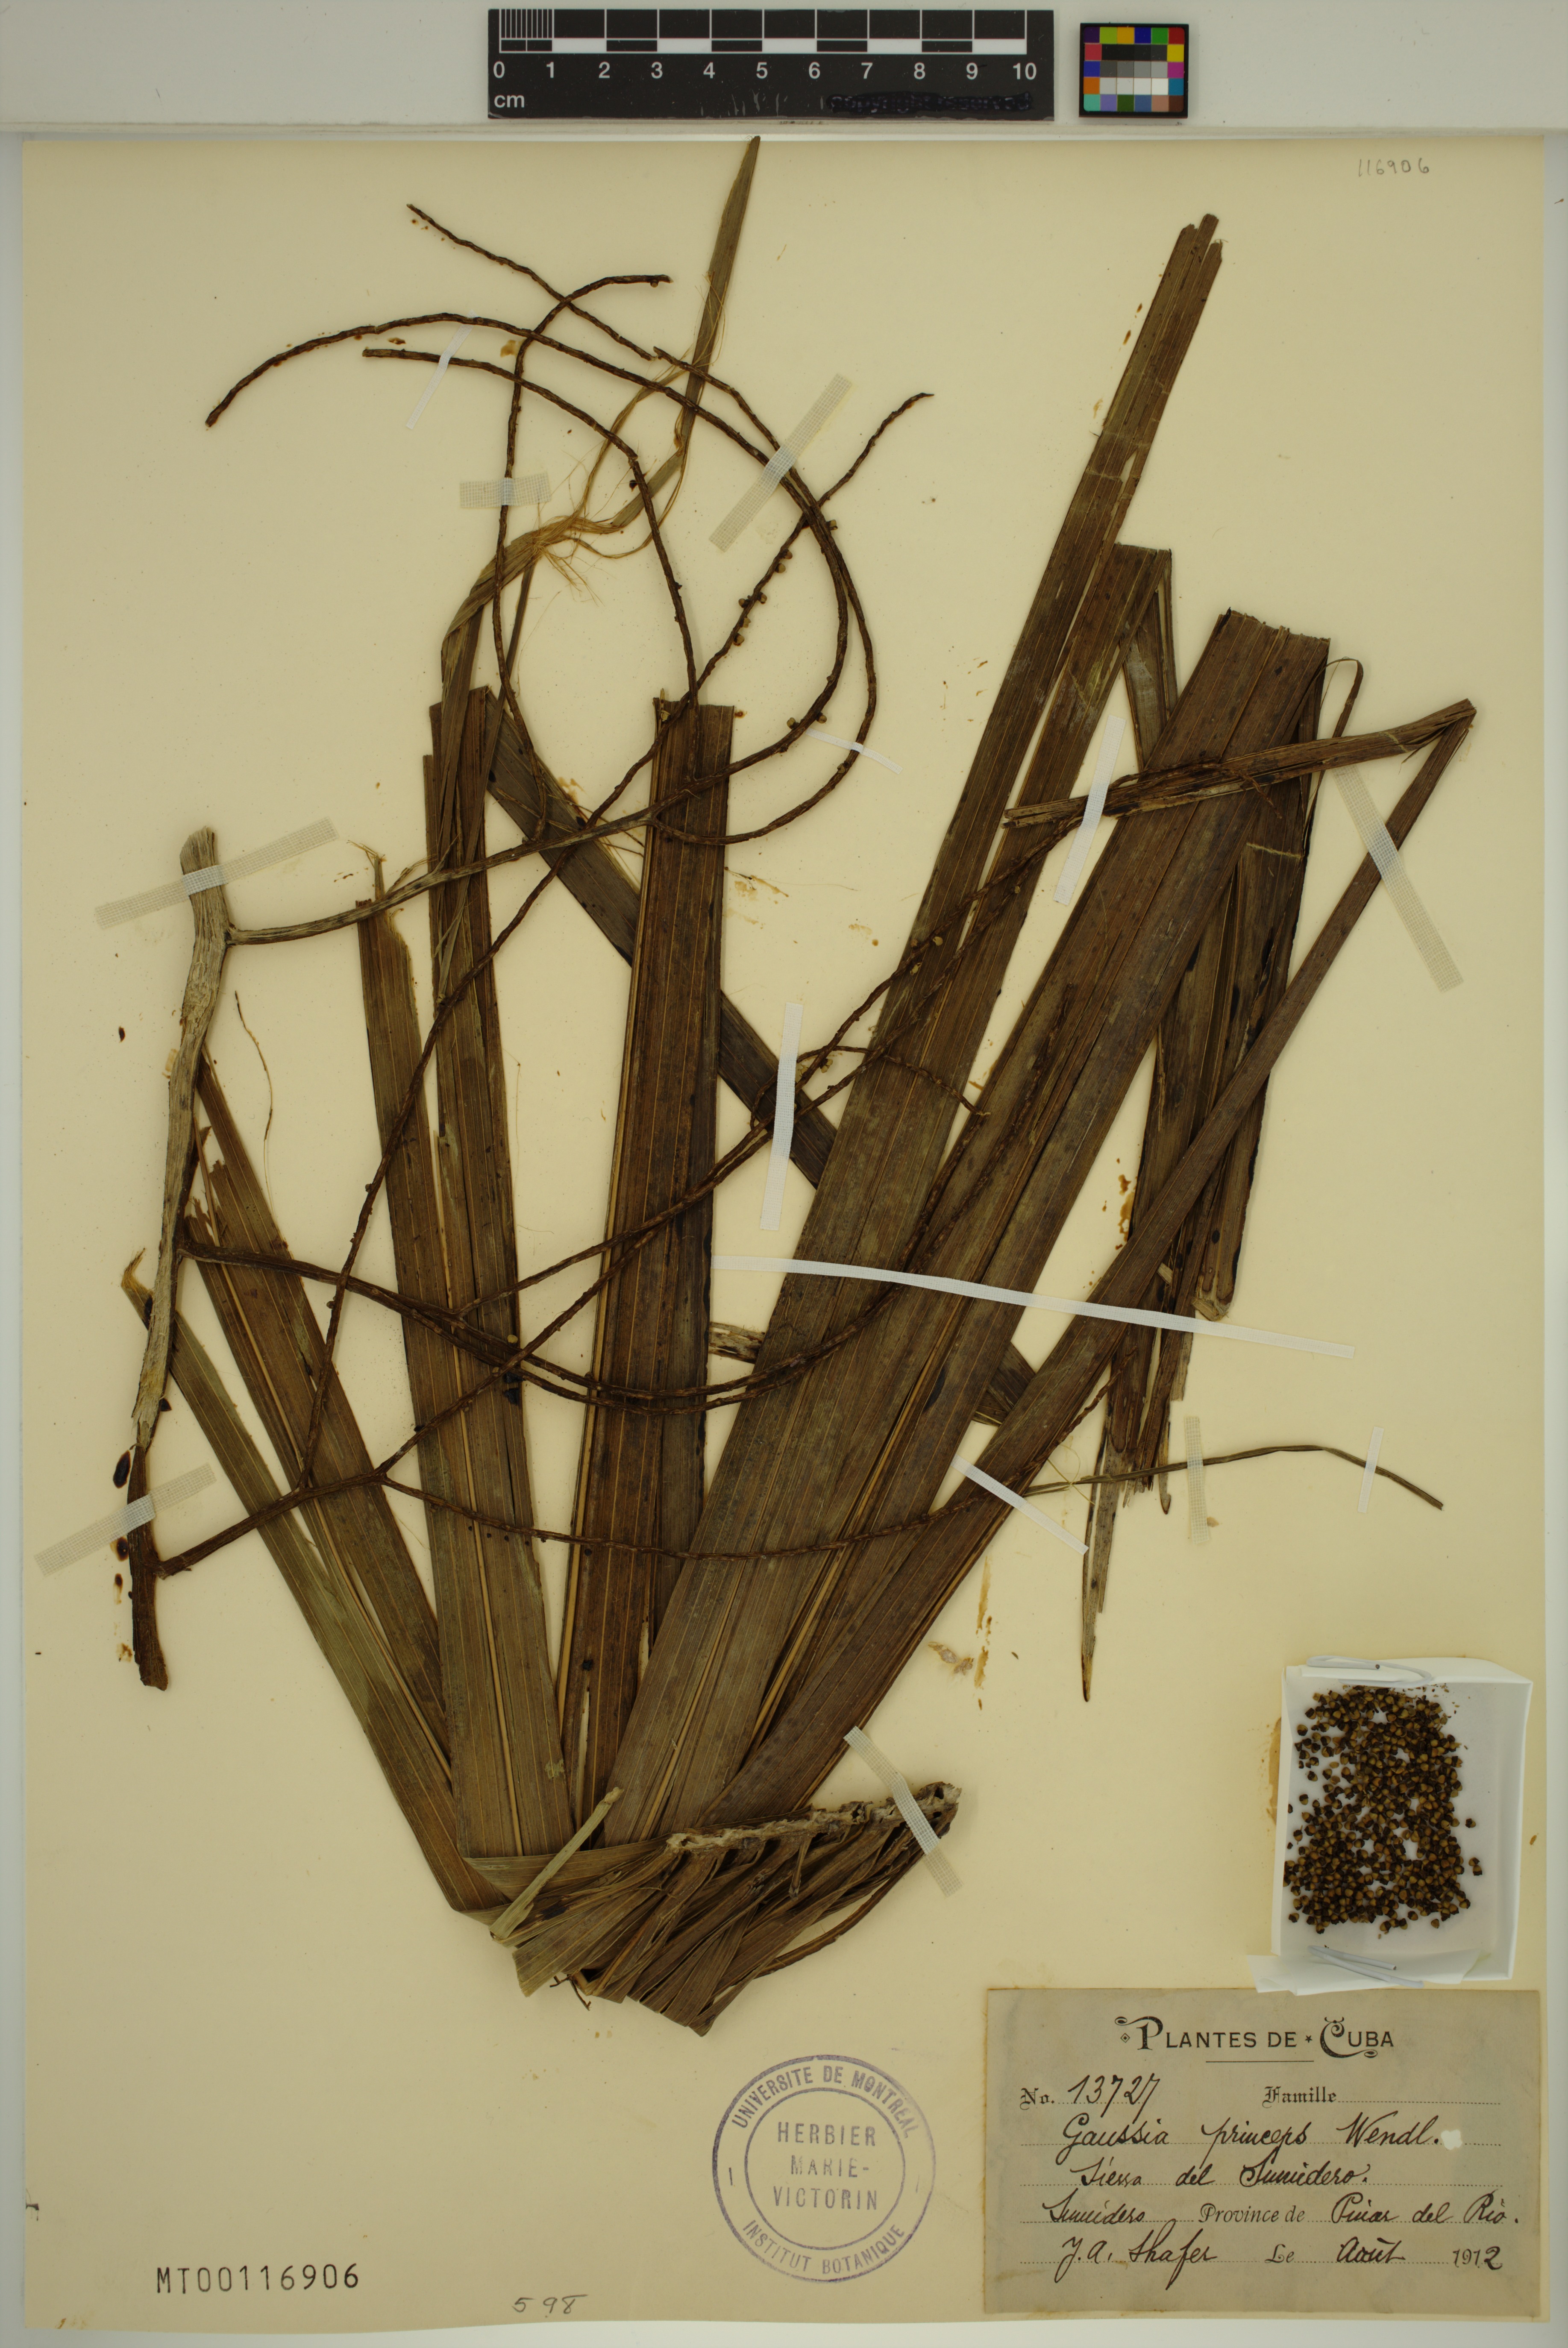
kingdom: Plantae
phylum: Tracheophyta
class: Liliopsida
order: Arecales
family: Arecaceae
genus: Gaussia
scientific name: Gaussia princeps
